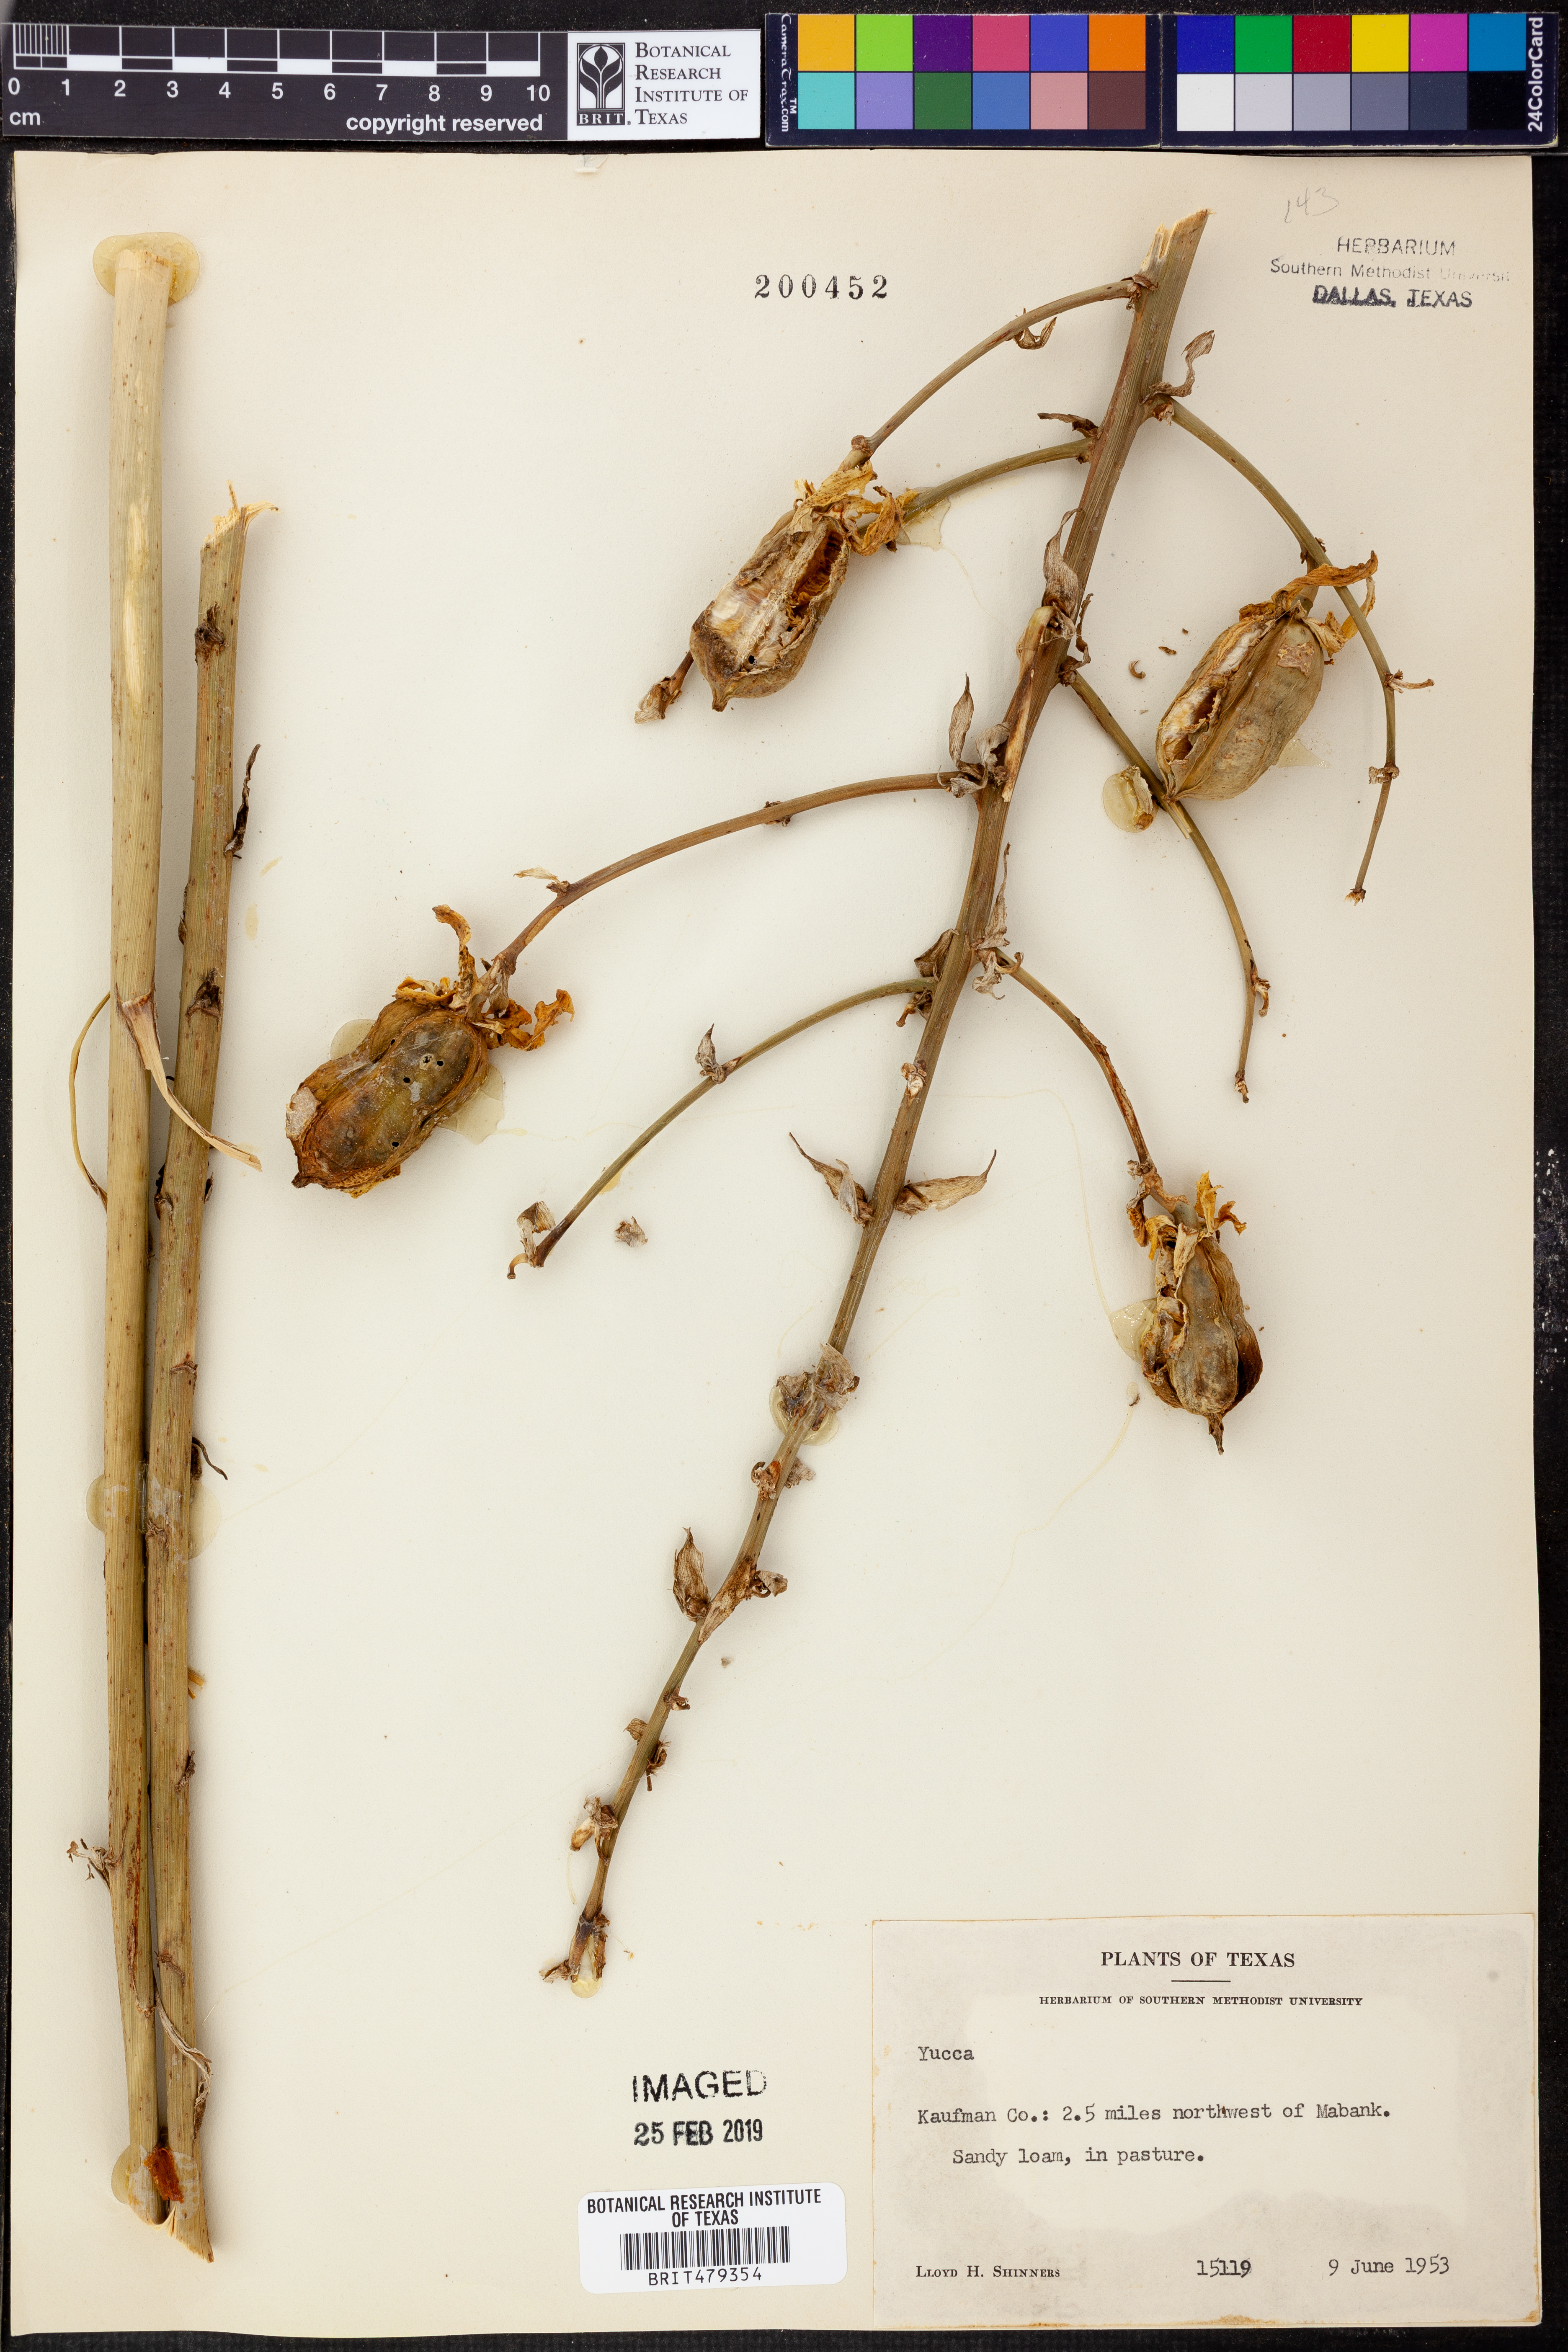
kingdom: Plantae
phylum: Tracheophyta
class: Liliopsida
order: Asparagales
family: Asparagaceae
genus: Yucca
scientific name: Yucca
